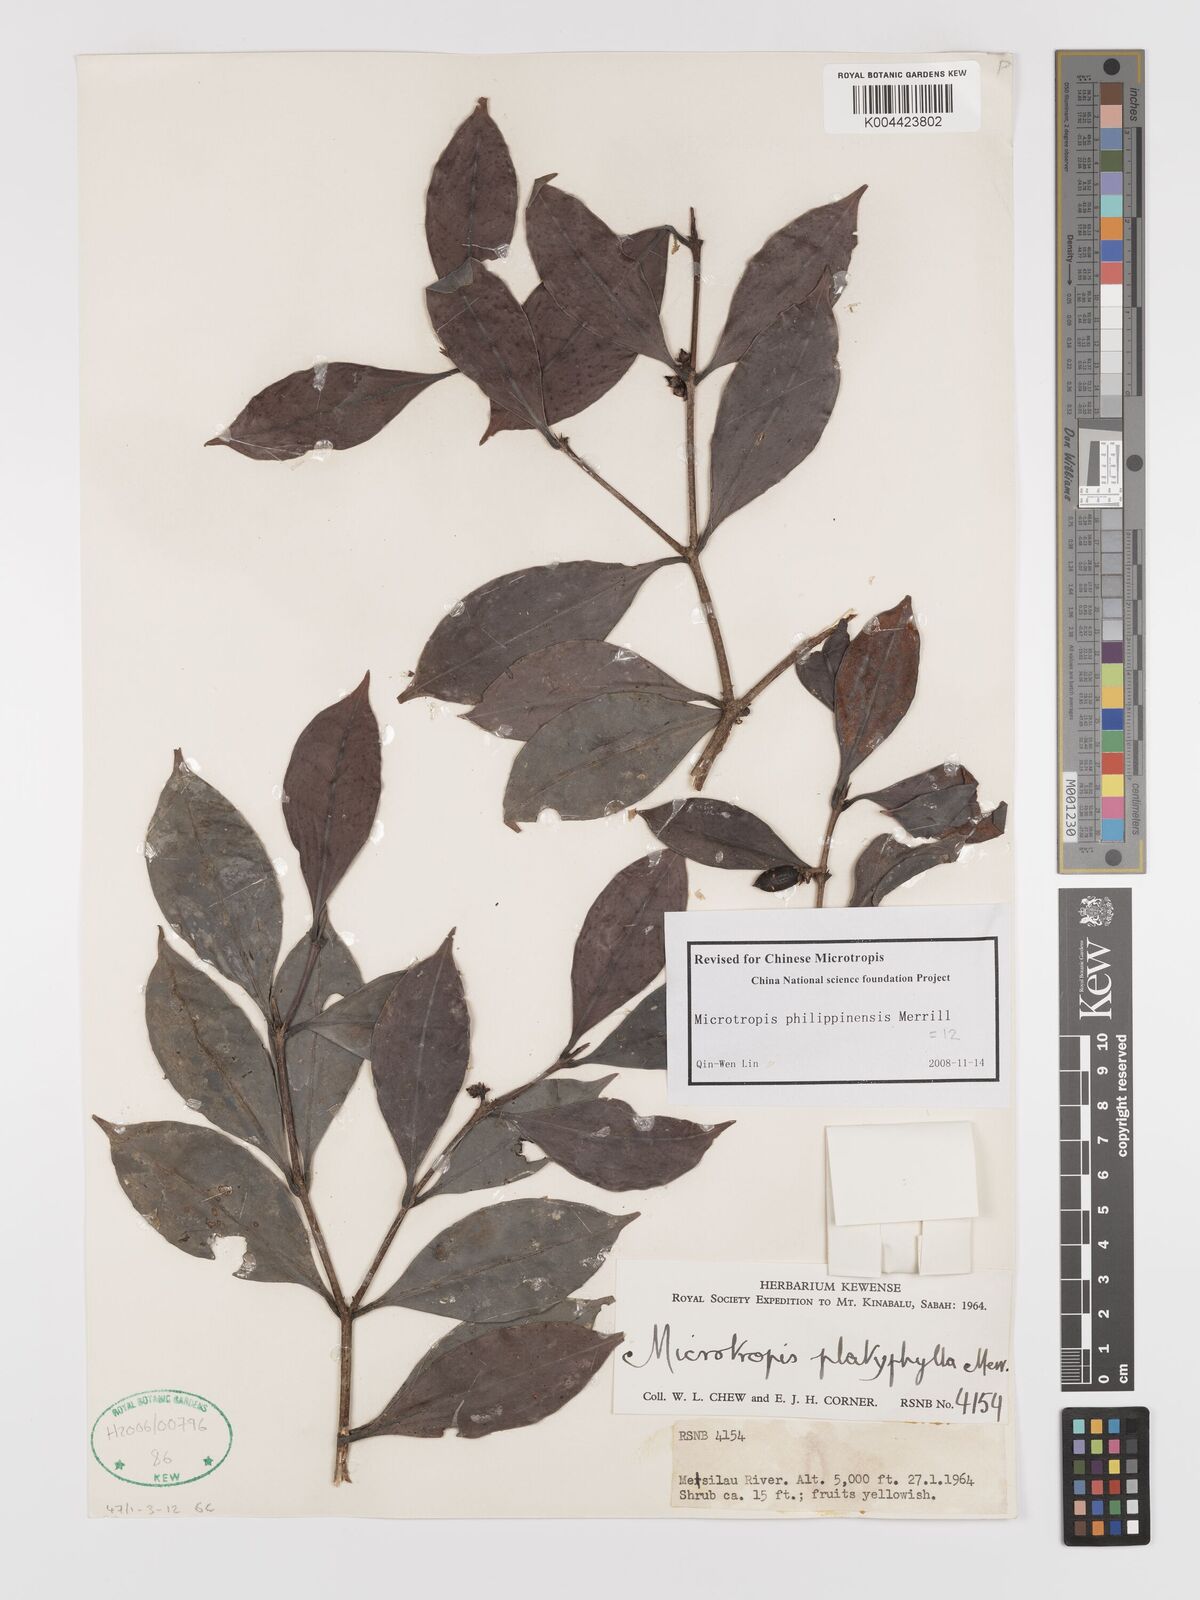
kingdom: Plantae
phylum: Tracheophyta
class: Magnoliopsida
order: Celastrales
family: Celastraceae
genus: Microtropis
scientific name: Microtropis platyphylla
